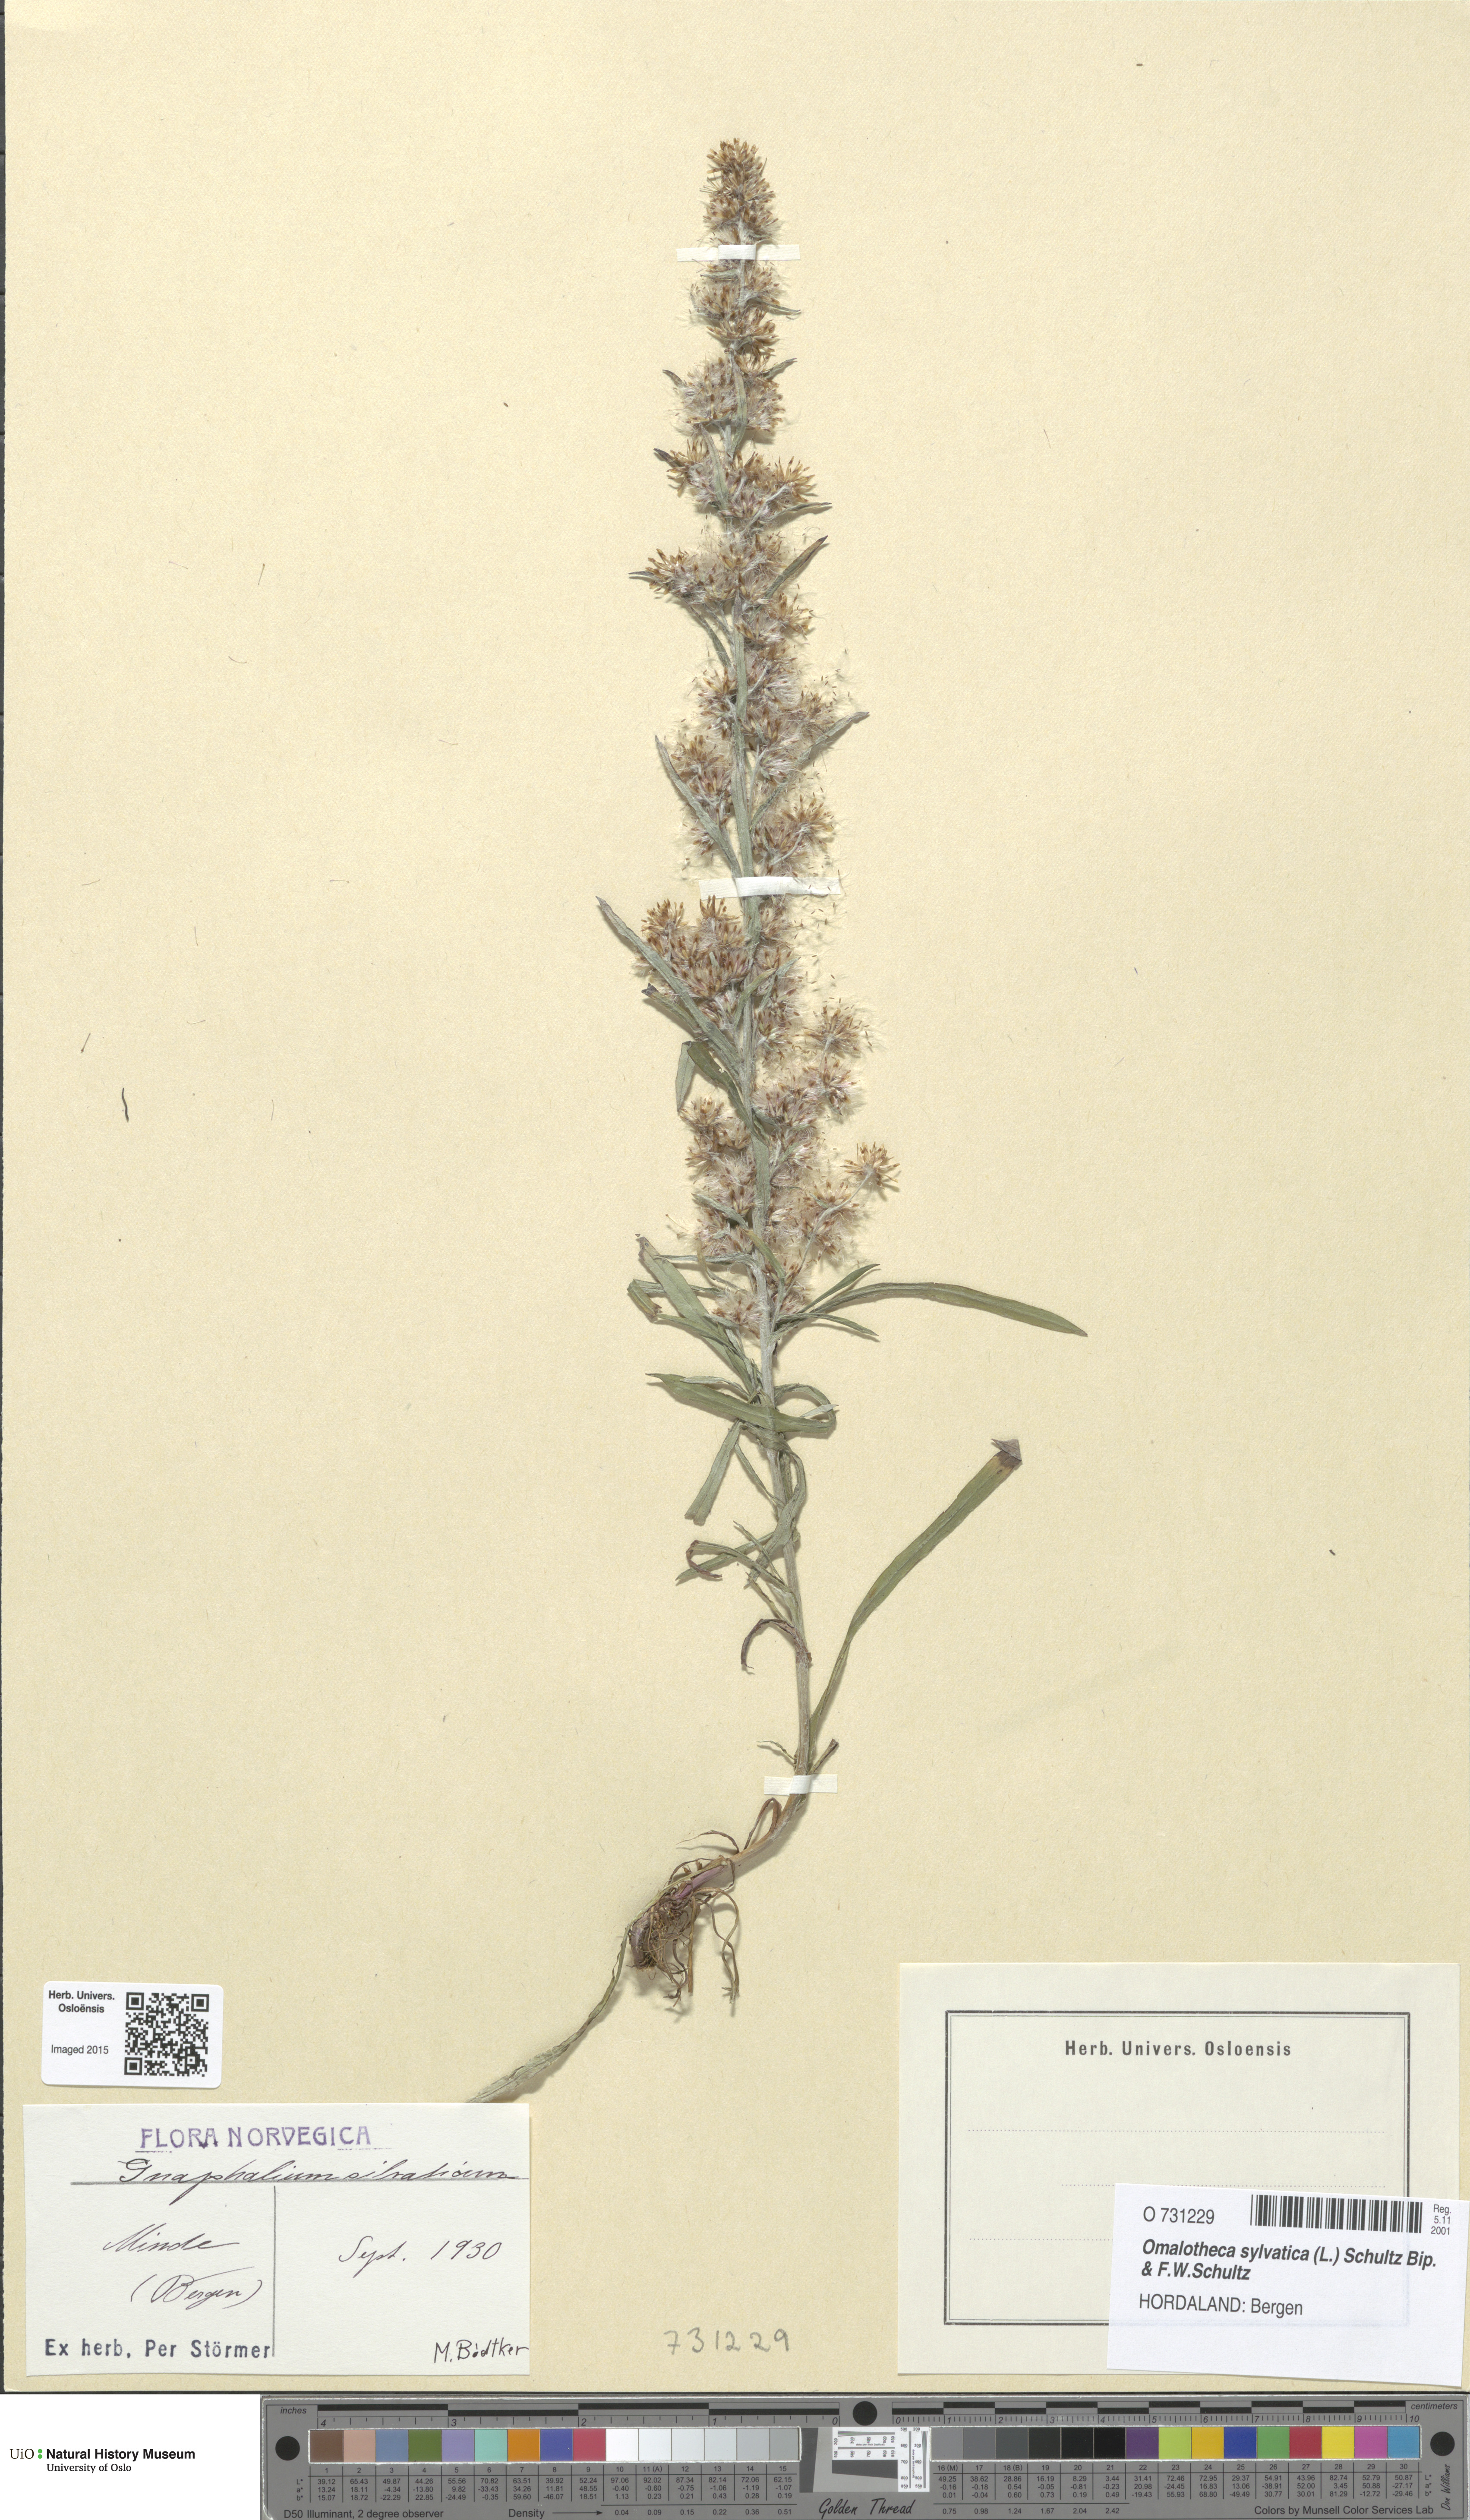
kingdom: Plantae
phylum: Tracheophyta
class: Magnoliopsida
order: Asterales
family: Asteraceae
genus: Omalotheca
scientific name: Omalotheca sylvatica
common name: Heath cudweed
